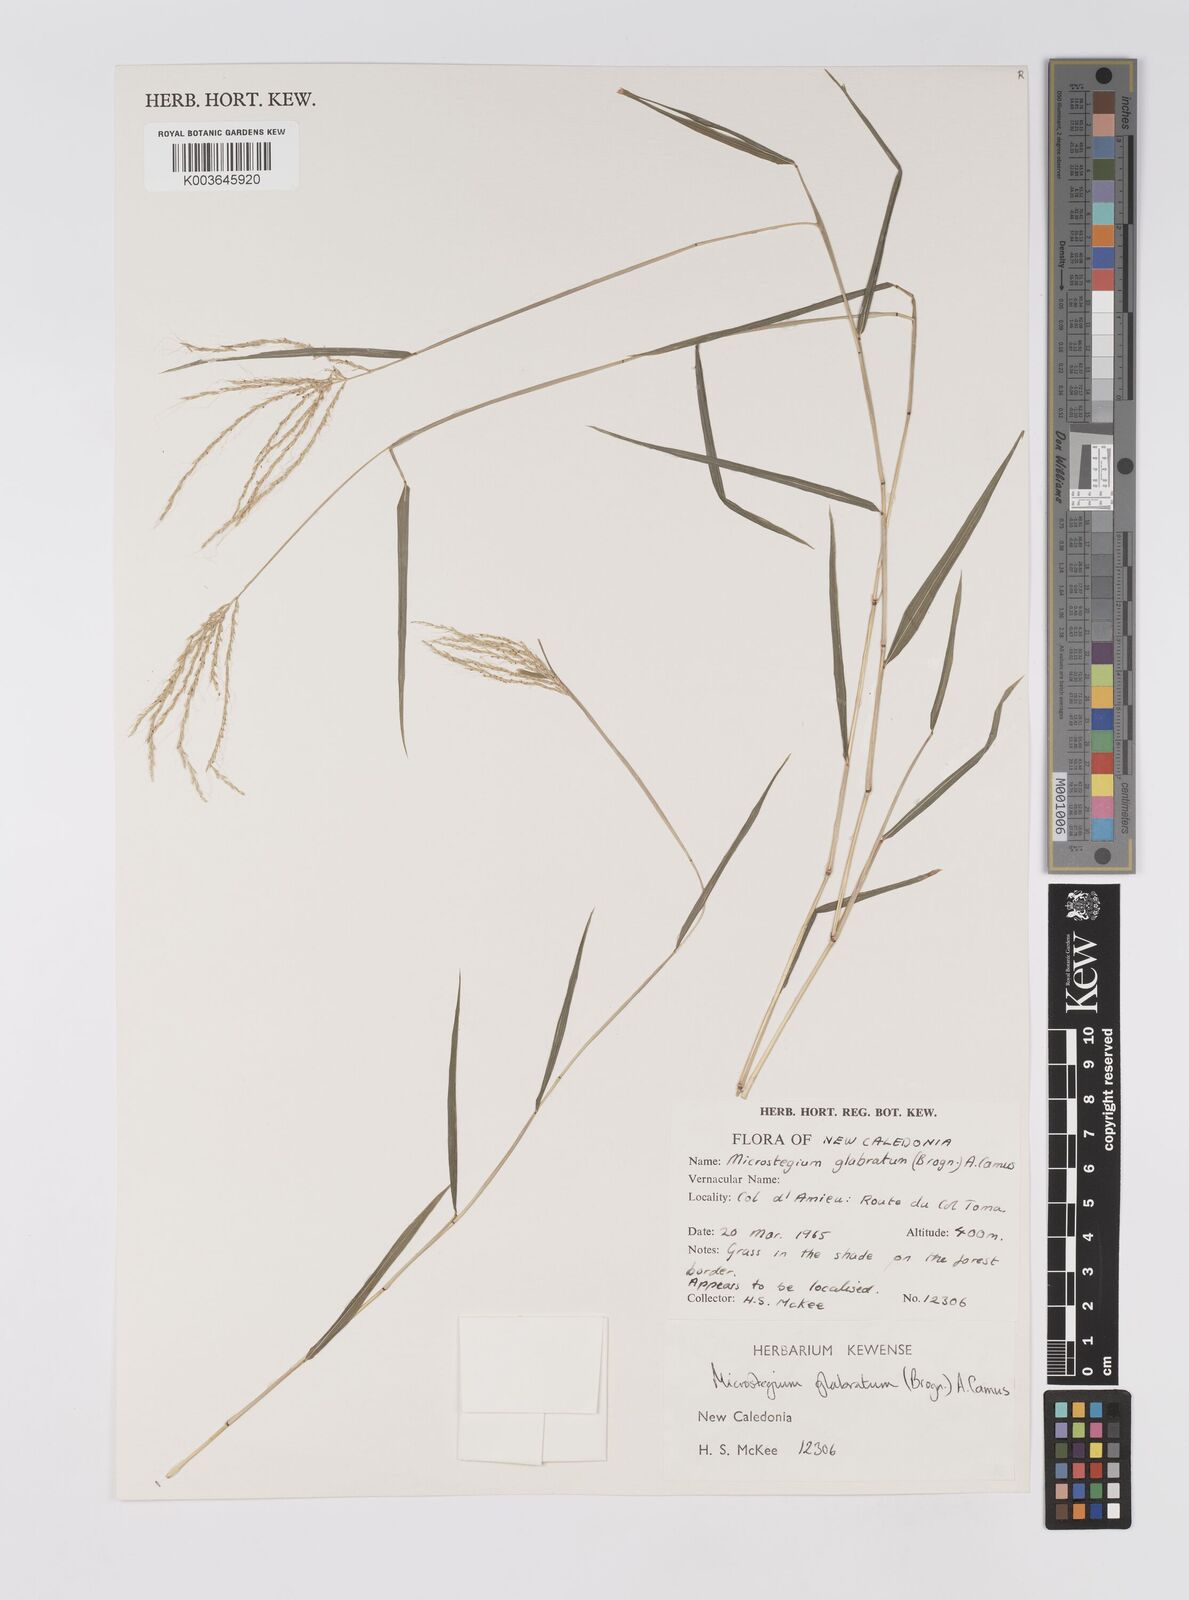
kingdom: Plantae
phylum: Tracheophyta
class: Liliopsida
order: Poales
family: Poaceae
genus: Microstegium
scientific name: Microstegium glabratum
